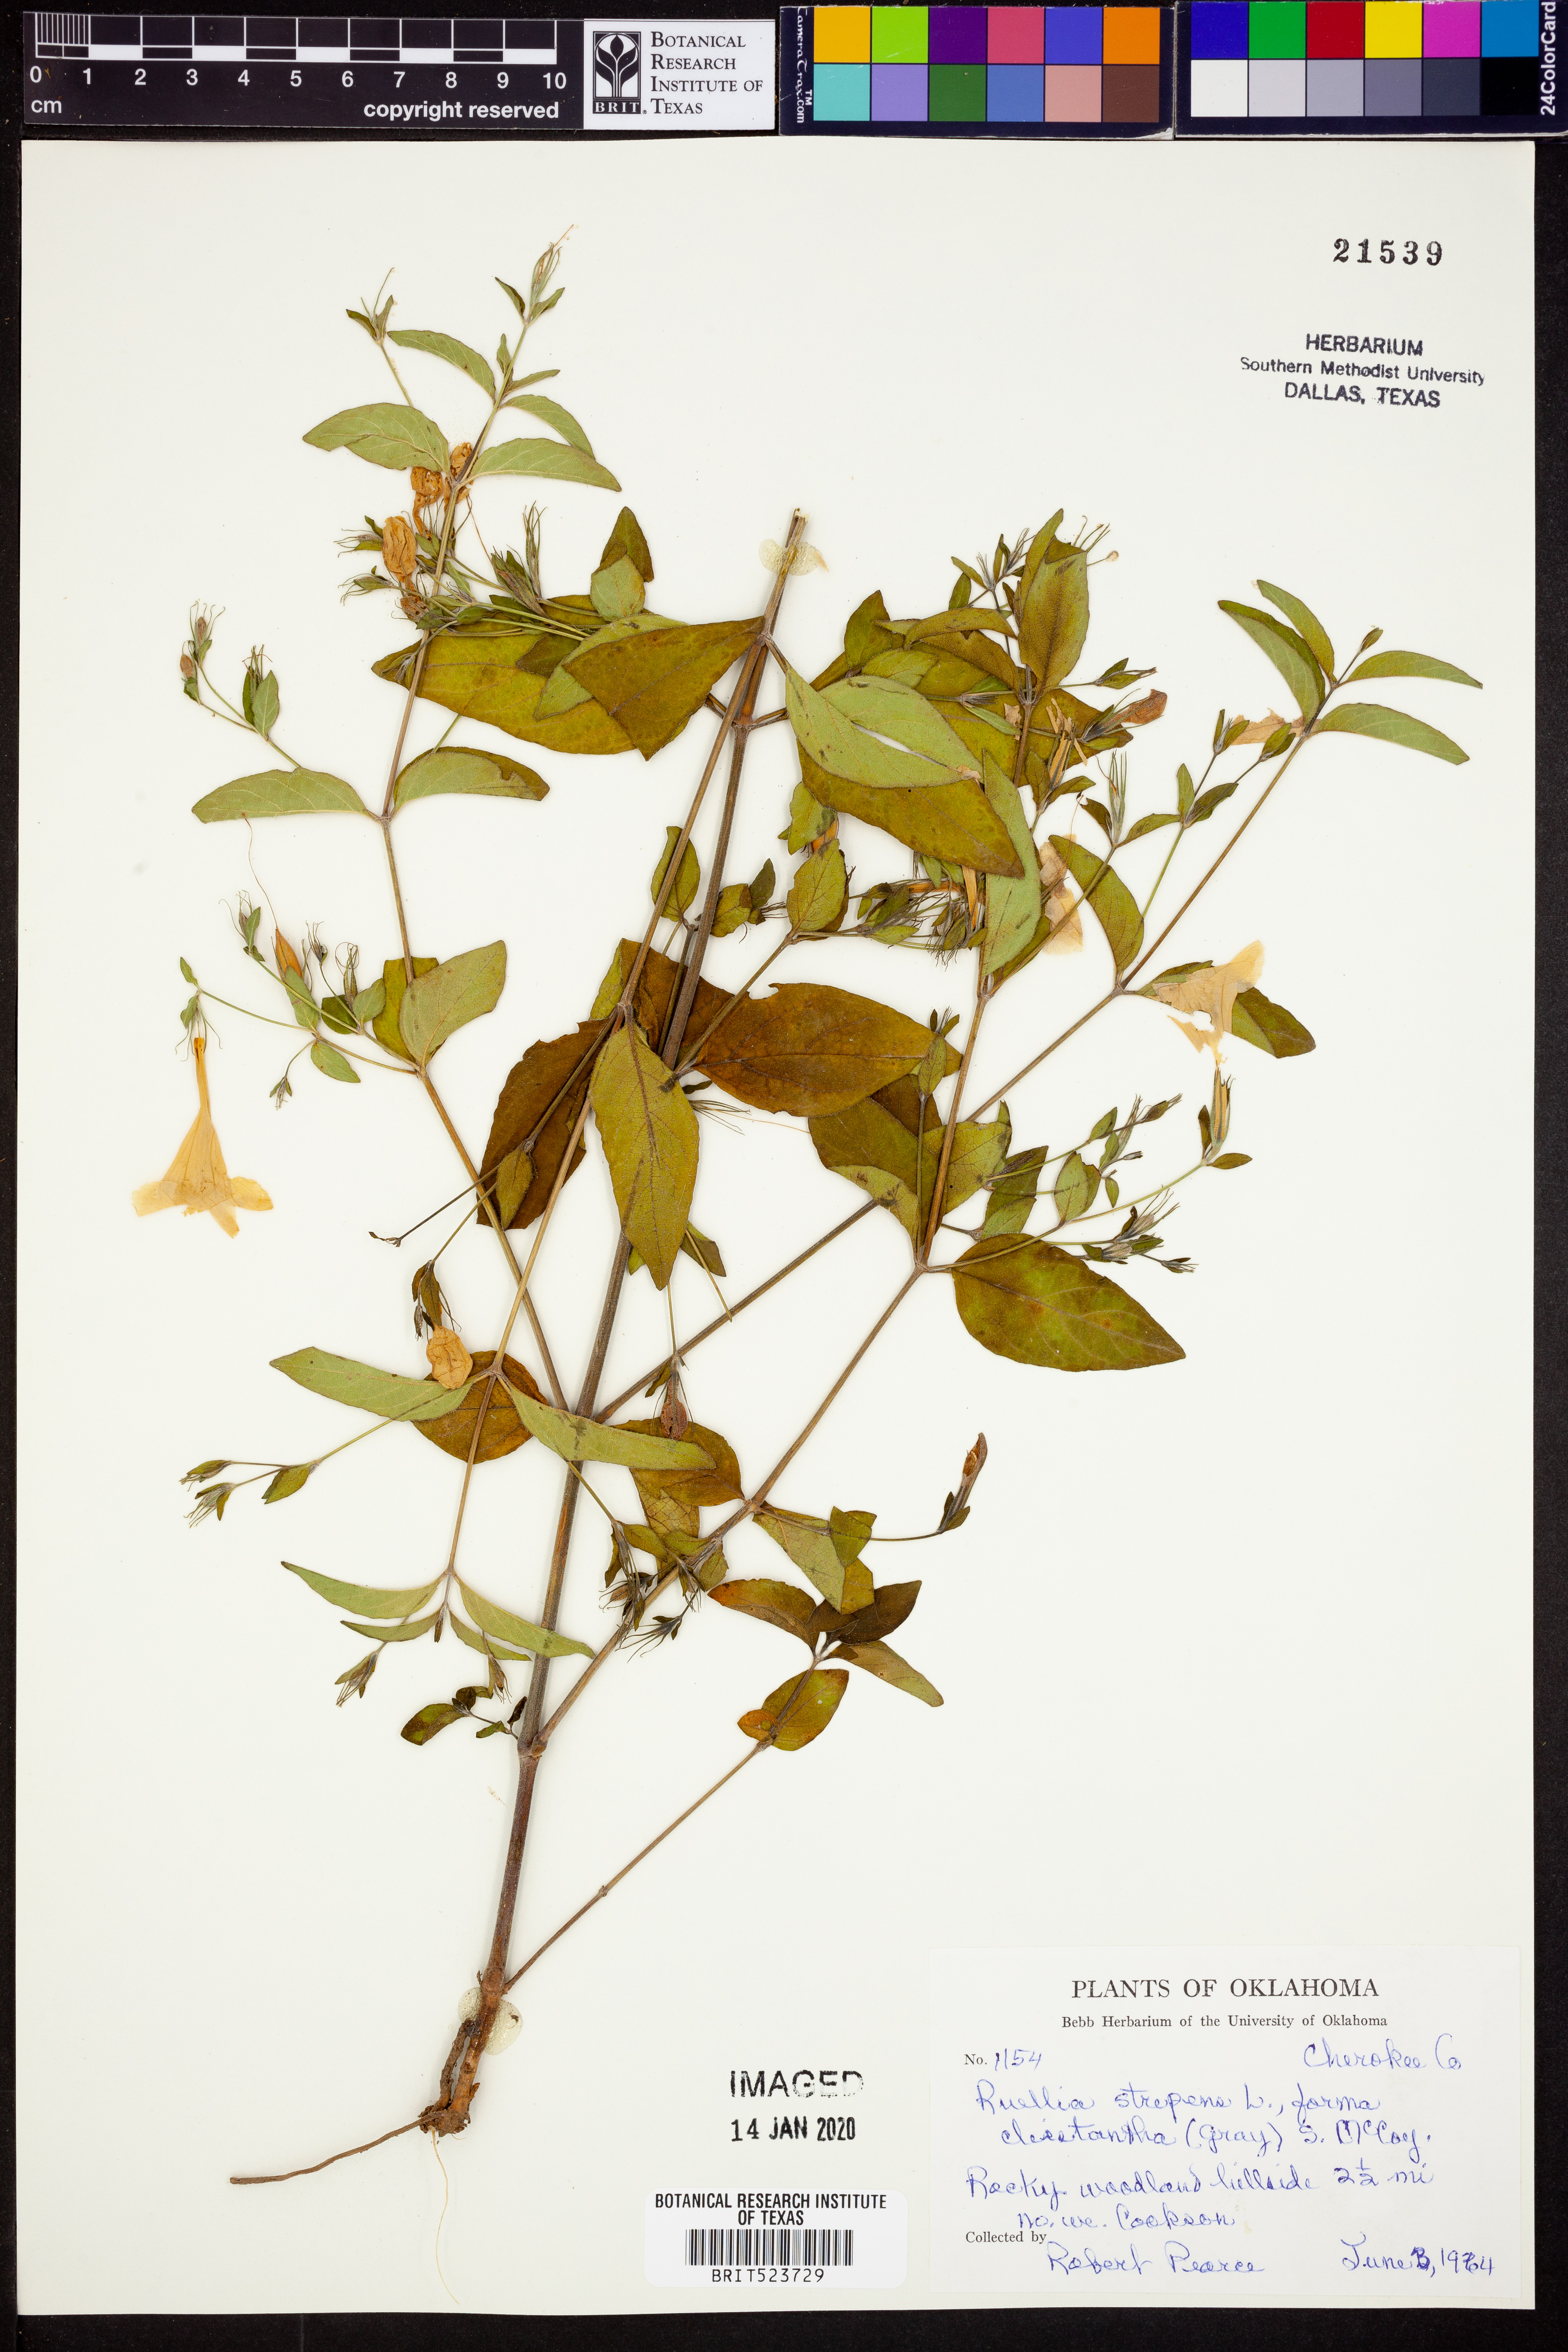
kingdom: Plantae
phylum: Tracheophyta
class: Magnoliopsida
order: Lamiales
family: Acanthaceae
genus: Ruellia
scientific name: Ruellia strepens
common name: Limestone wild petunia
